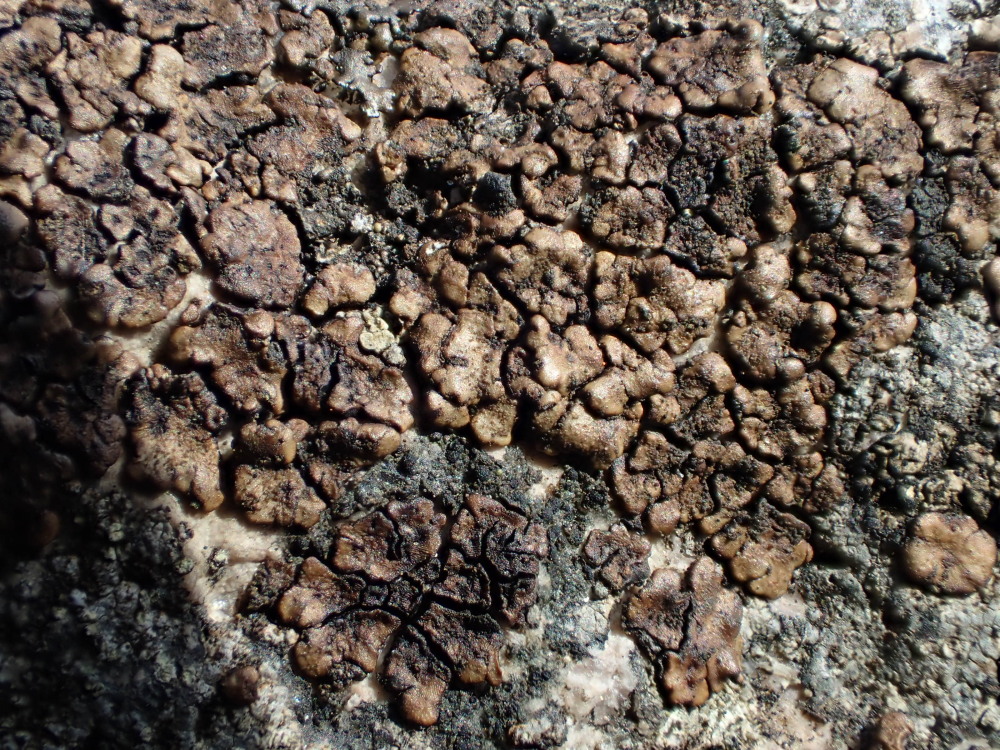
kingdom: Fungi
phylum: Ascomycota
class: Lecanoromycetes
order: Acarosporales
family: Acarosporaceae
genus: Acarospora
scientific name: Acarospora fuscata
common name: brun småsporelav
